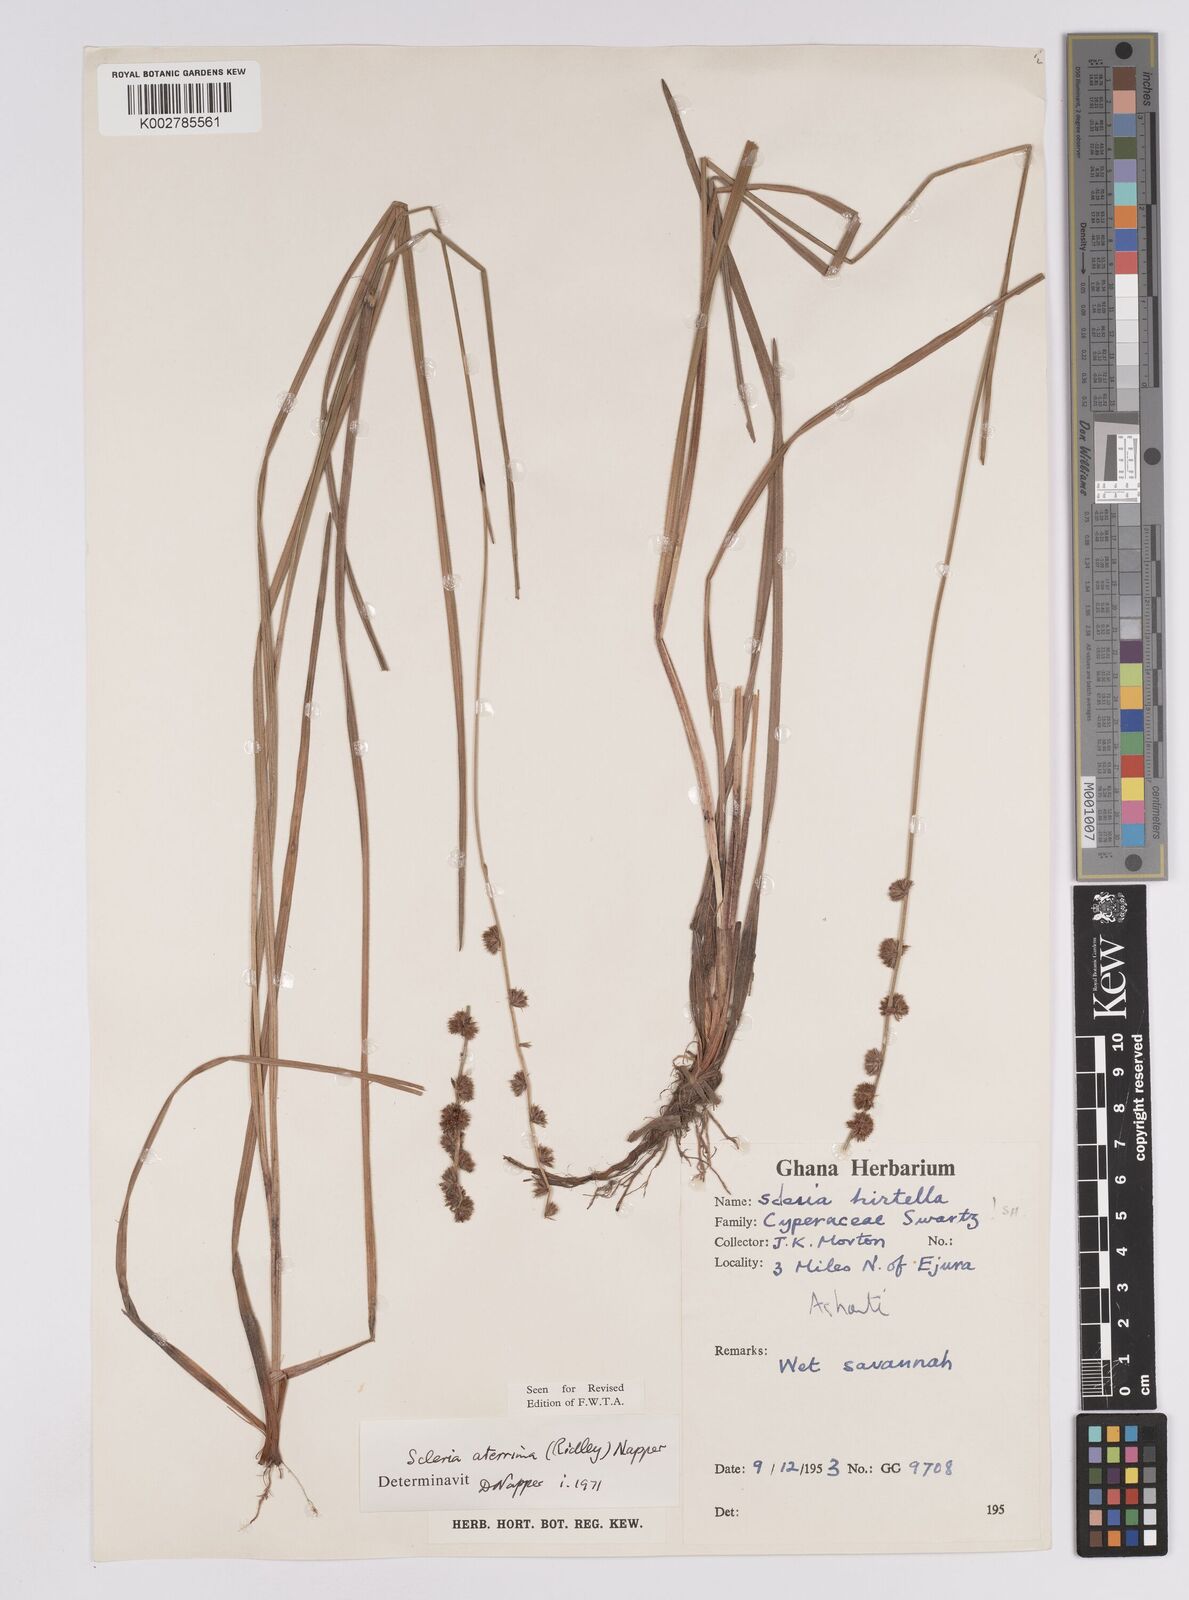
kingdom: Plantae
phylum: Tracheophyta
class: Liliopsida
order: Poales
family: Cyperaceae
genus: Scleria
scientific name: Scleria catophylla
